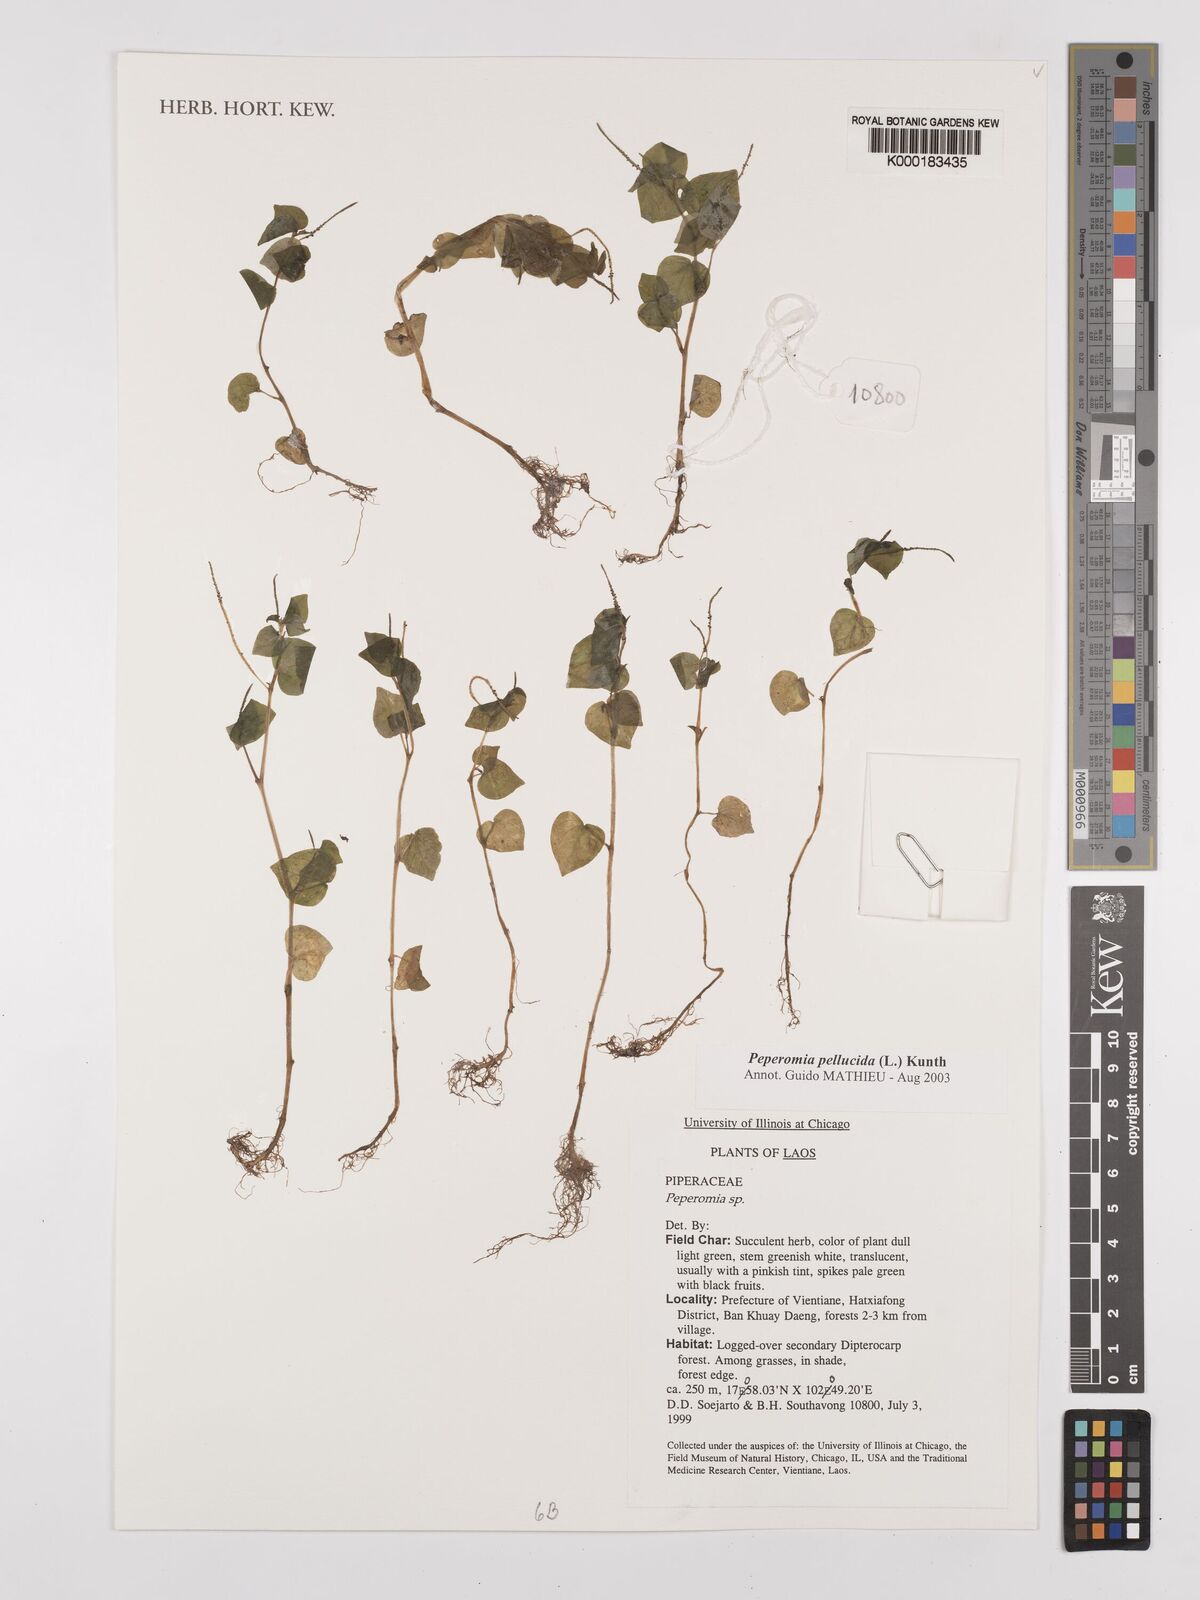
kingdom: Plantae
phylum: Tracheophyta
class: Magnoliopsida
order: Piperales
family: Piperaceae
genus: Peperomia
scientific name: Peperomia pellucida
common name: Man to man
